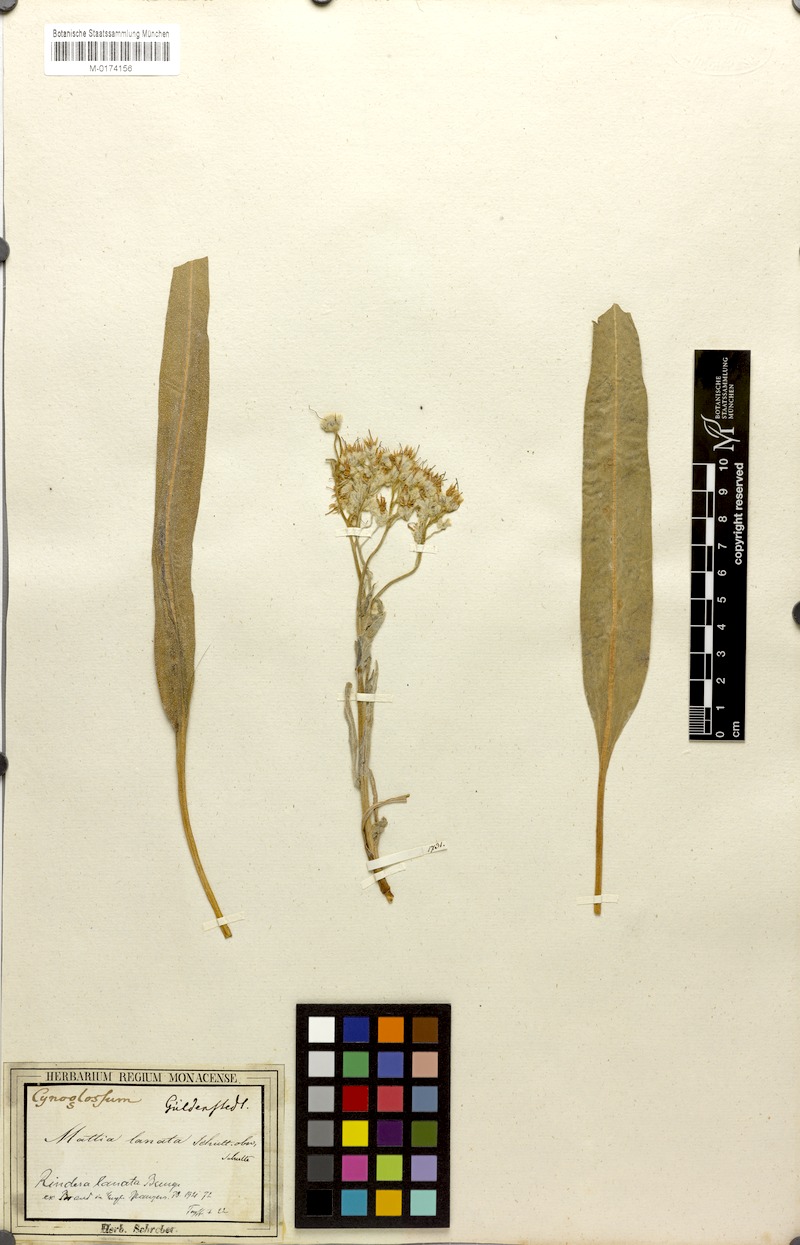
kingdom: Plantae
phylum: Tracheophyta
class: Magnoliopsida
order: Boraginales
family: Boraginaceae
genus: Rindera
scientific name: Rindera lanata
